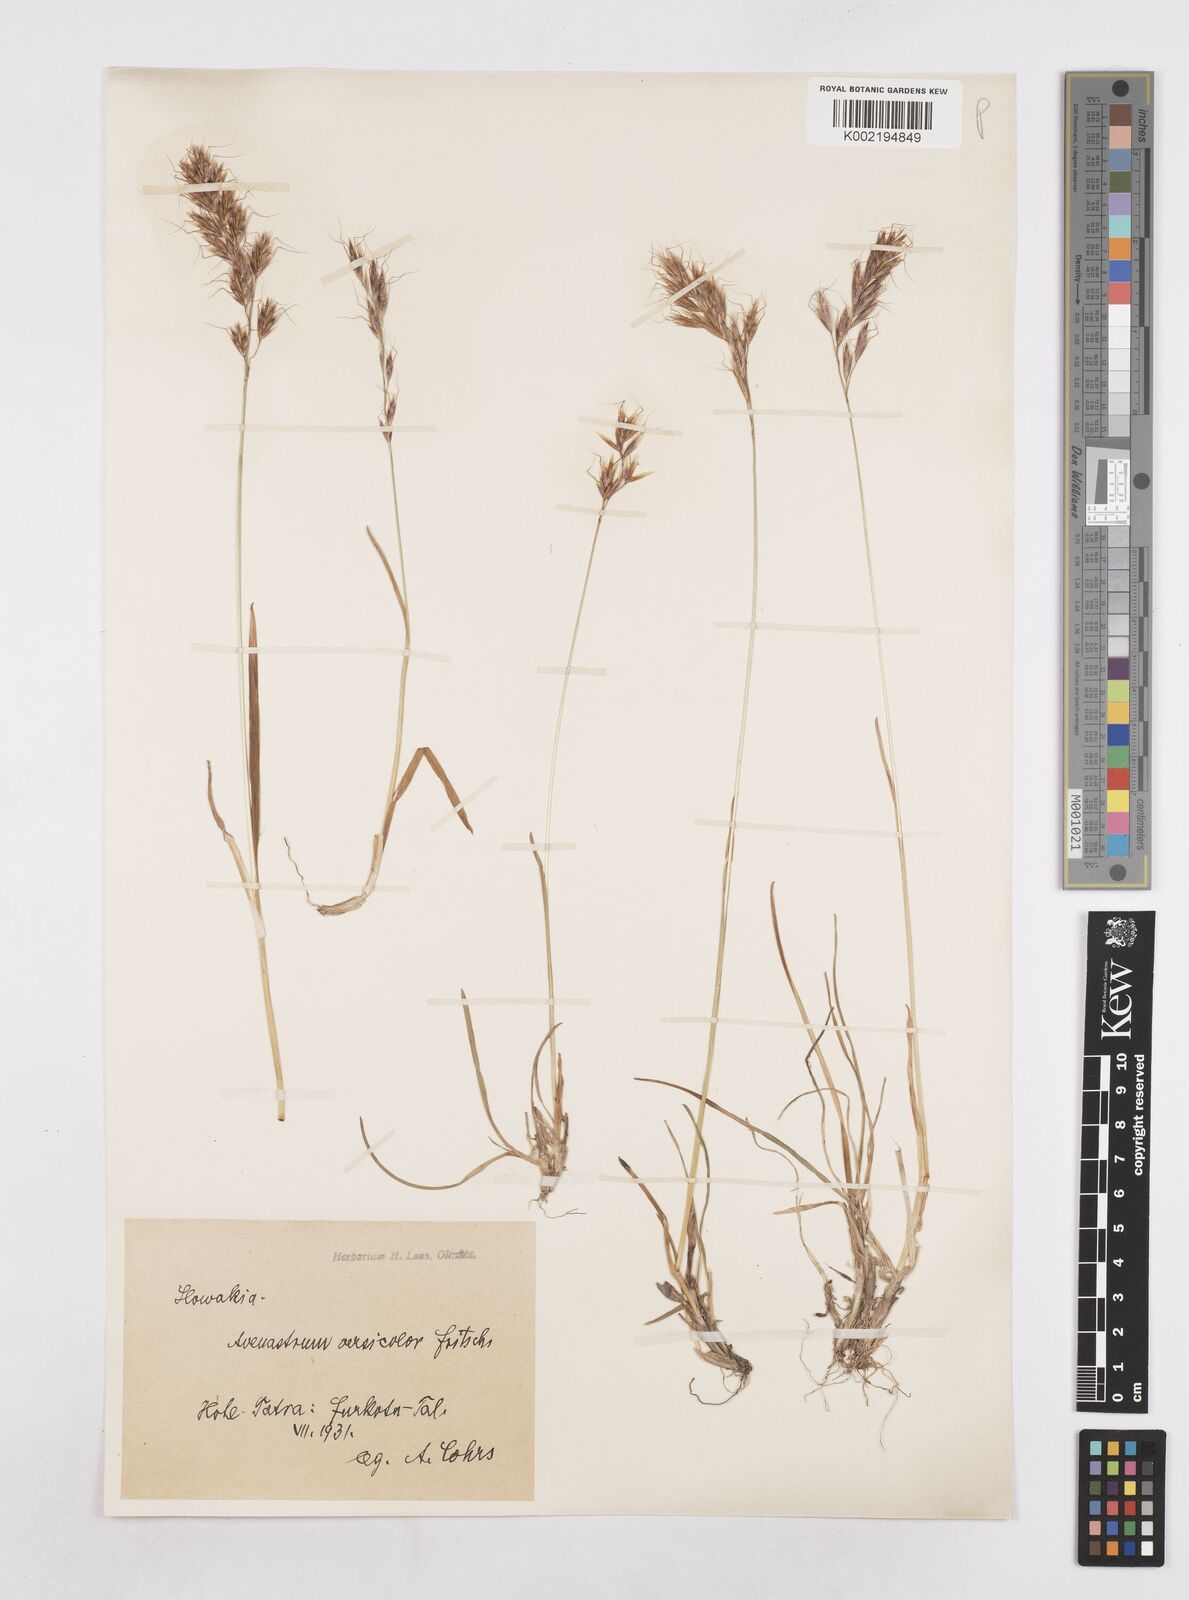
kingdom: Plantae
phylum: Tracheophyta
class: Liliopsida
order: Poales
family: Poaceae
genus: Helictochloa
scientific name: Helictochloa versicolor
